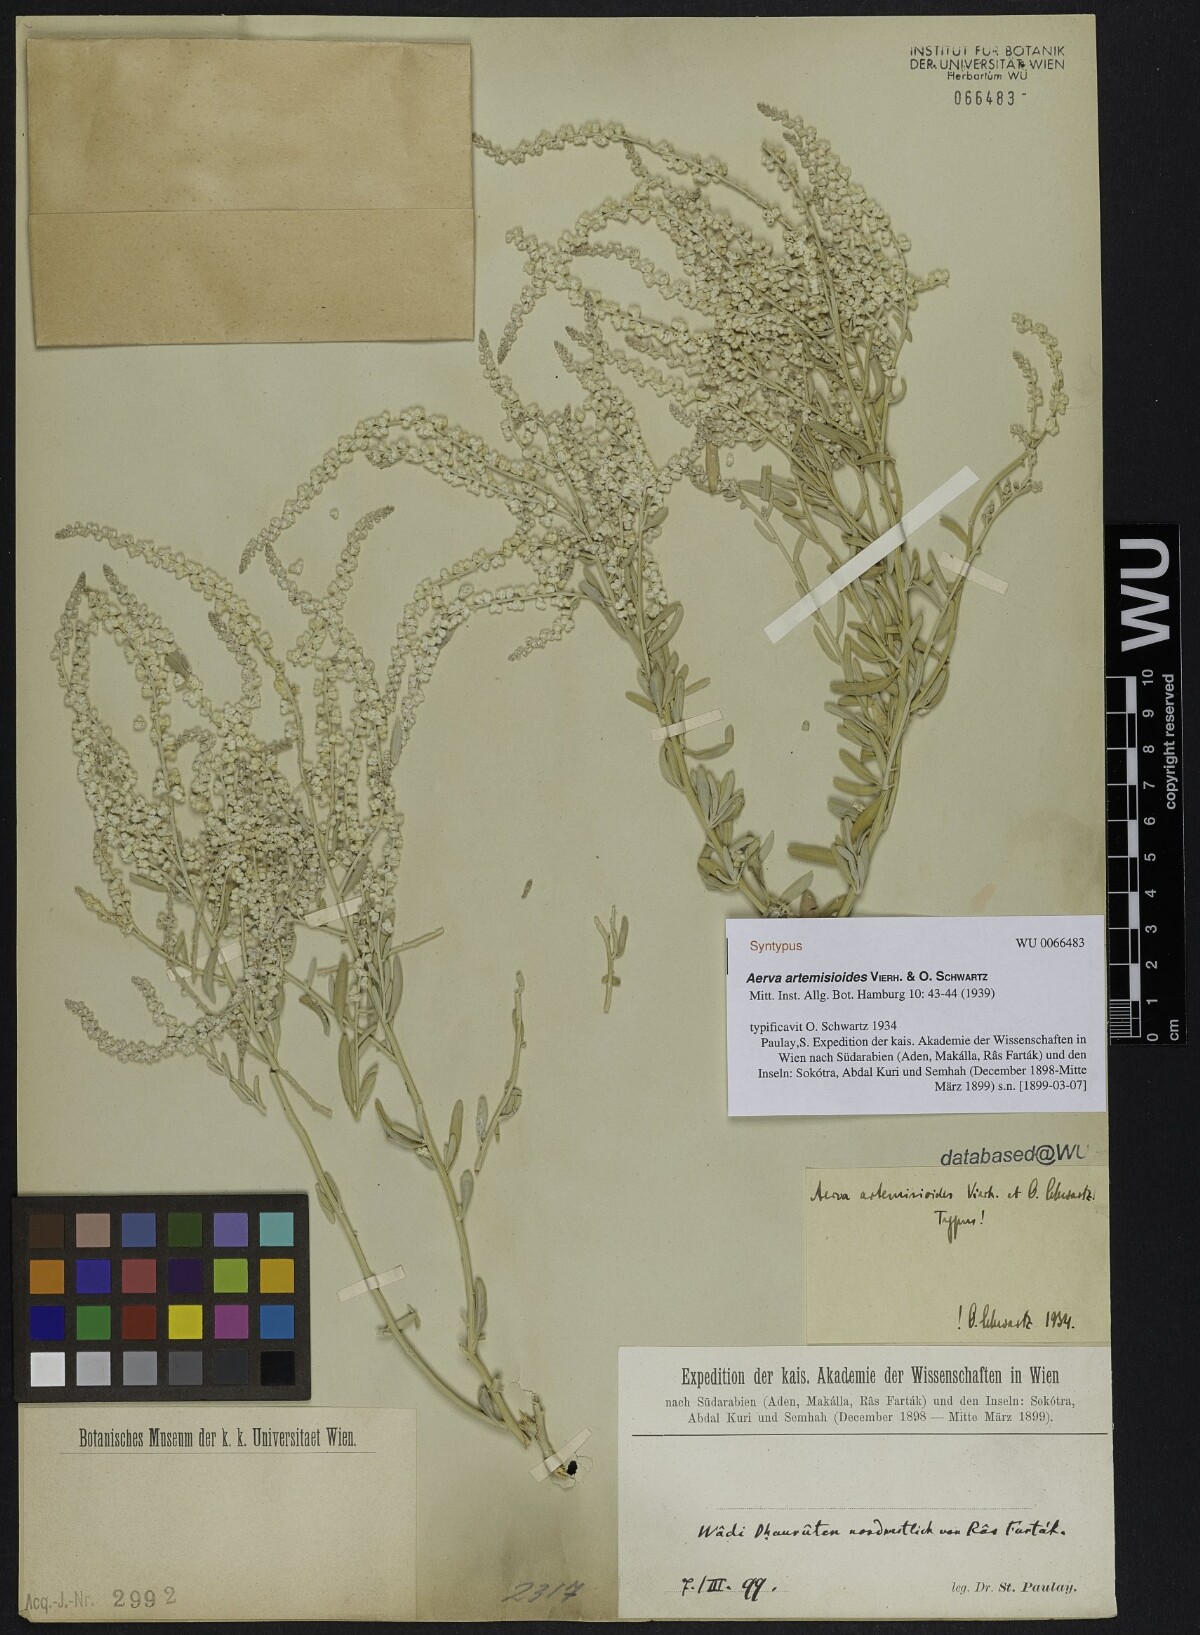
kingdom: Plantae
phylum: Tracheophyta
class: Magnoliopsida
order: Caryophyllales
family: Amaranthaceae
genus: Wadithamnus
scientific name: Wadithamnus artemisioides
